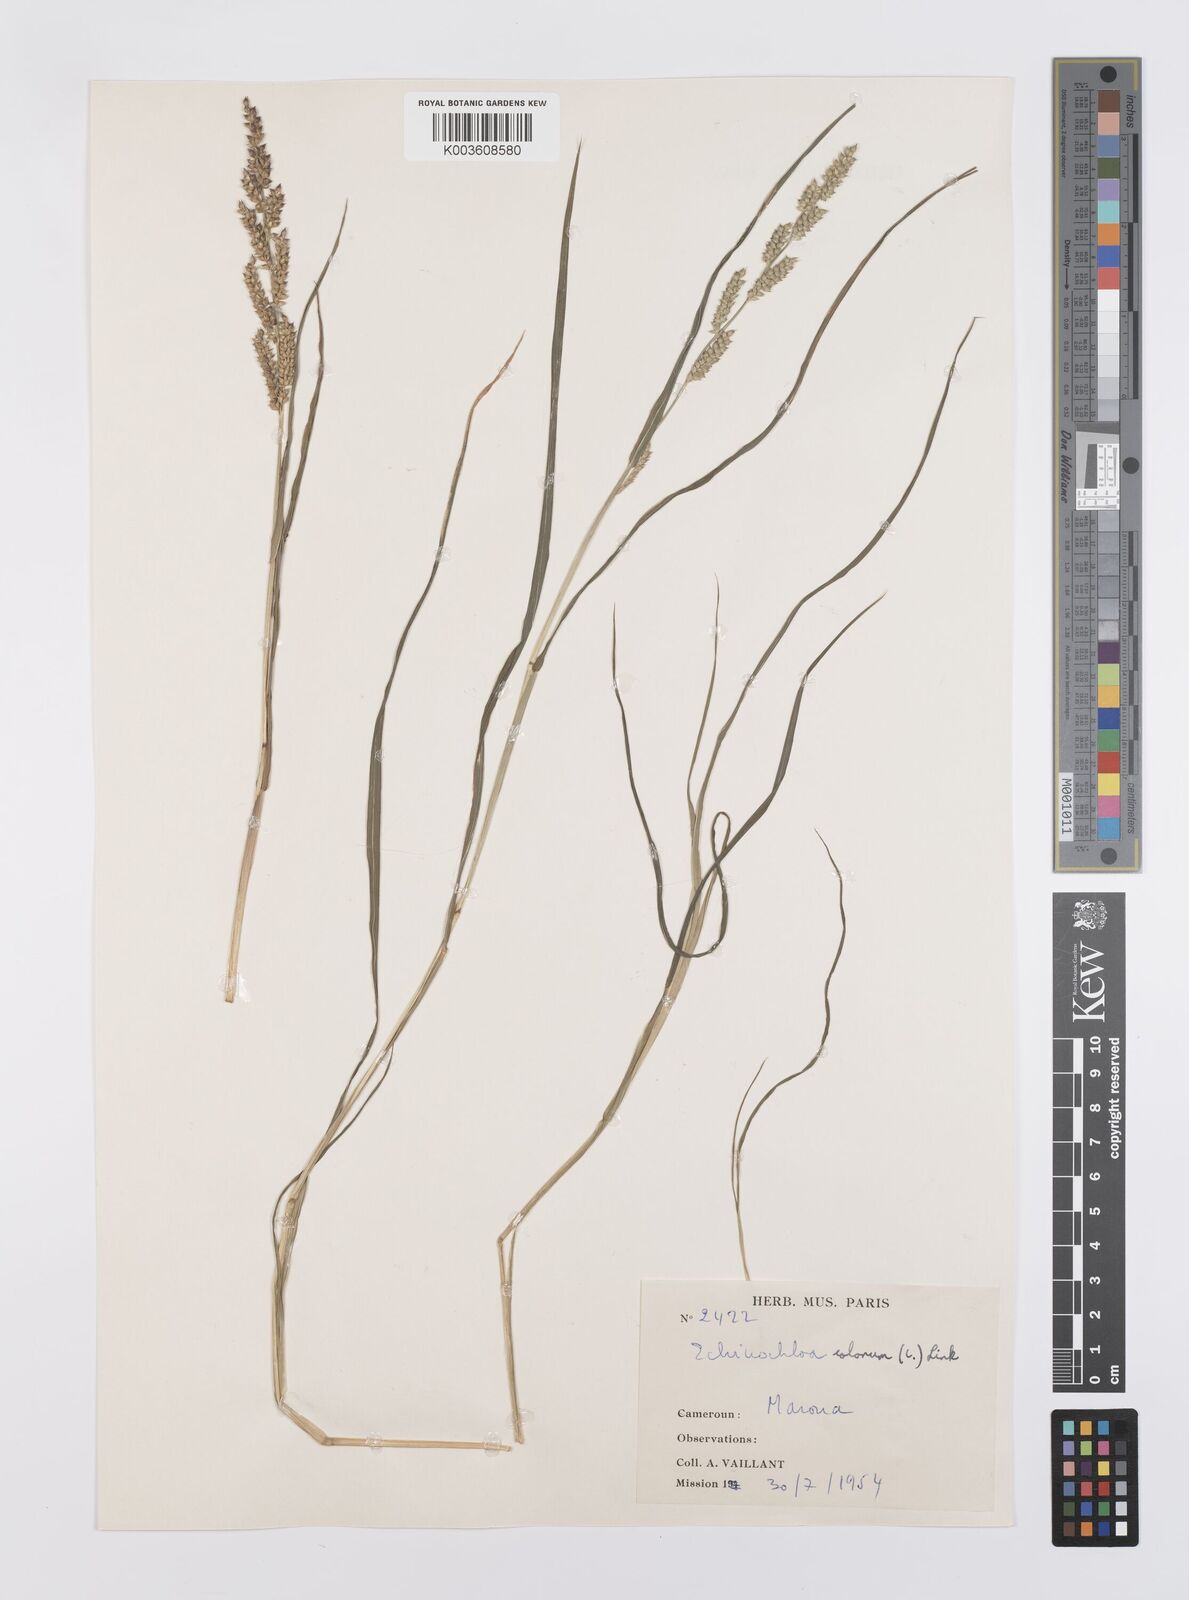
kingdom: Plantae
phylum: Tracheophyta
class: Liliopsida
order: Poales
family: Poaceae
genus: Echinochloa
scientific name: Echinochloa colonum
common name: Jungle rice
